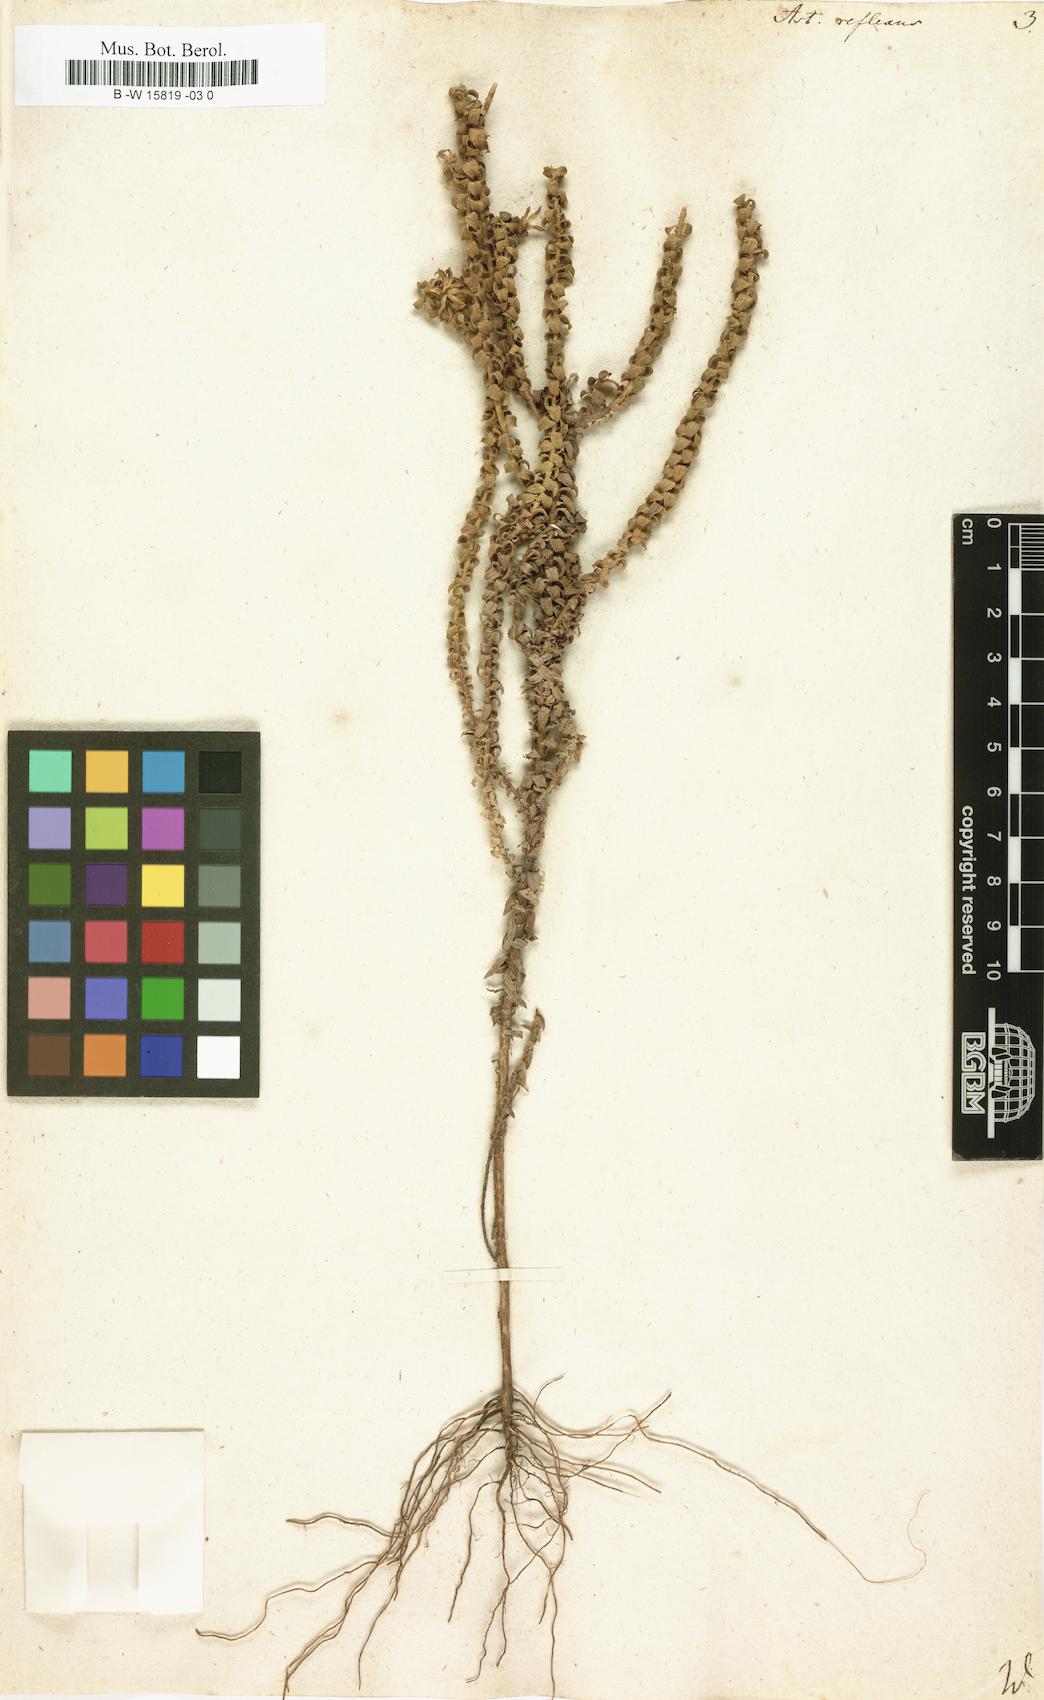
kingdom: Plantae
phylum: Tracheophyta
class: Magnoliopsida
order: Asterales
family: Asteraceae
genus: Polyarrhena
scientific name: Polyarrhena reflexa
